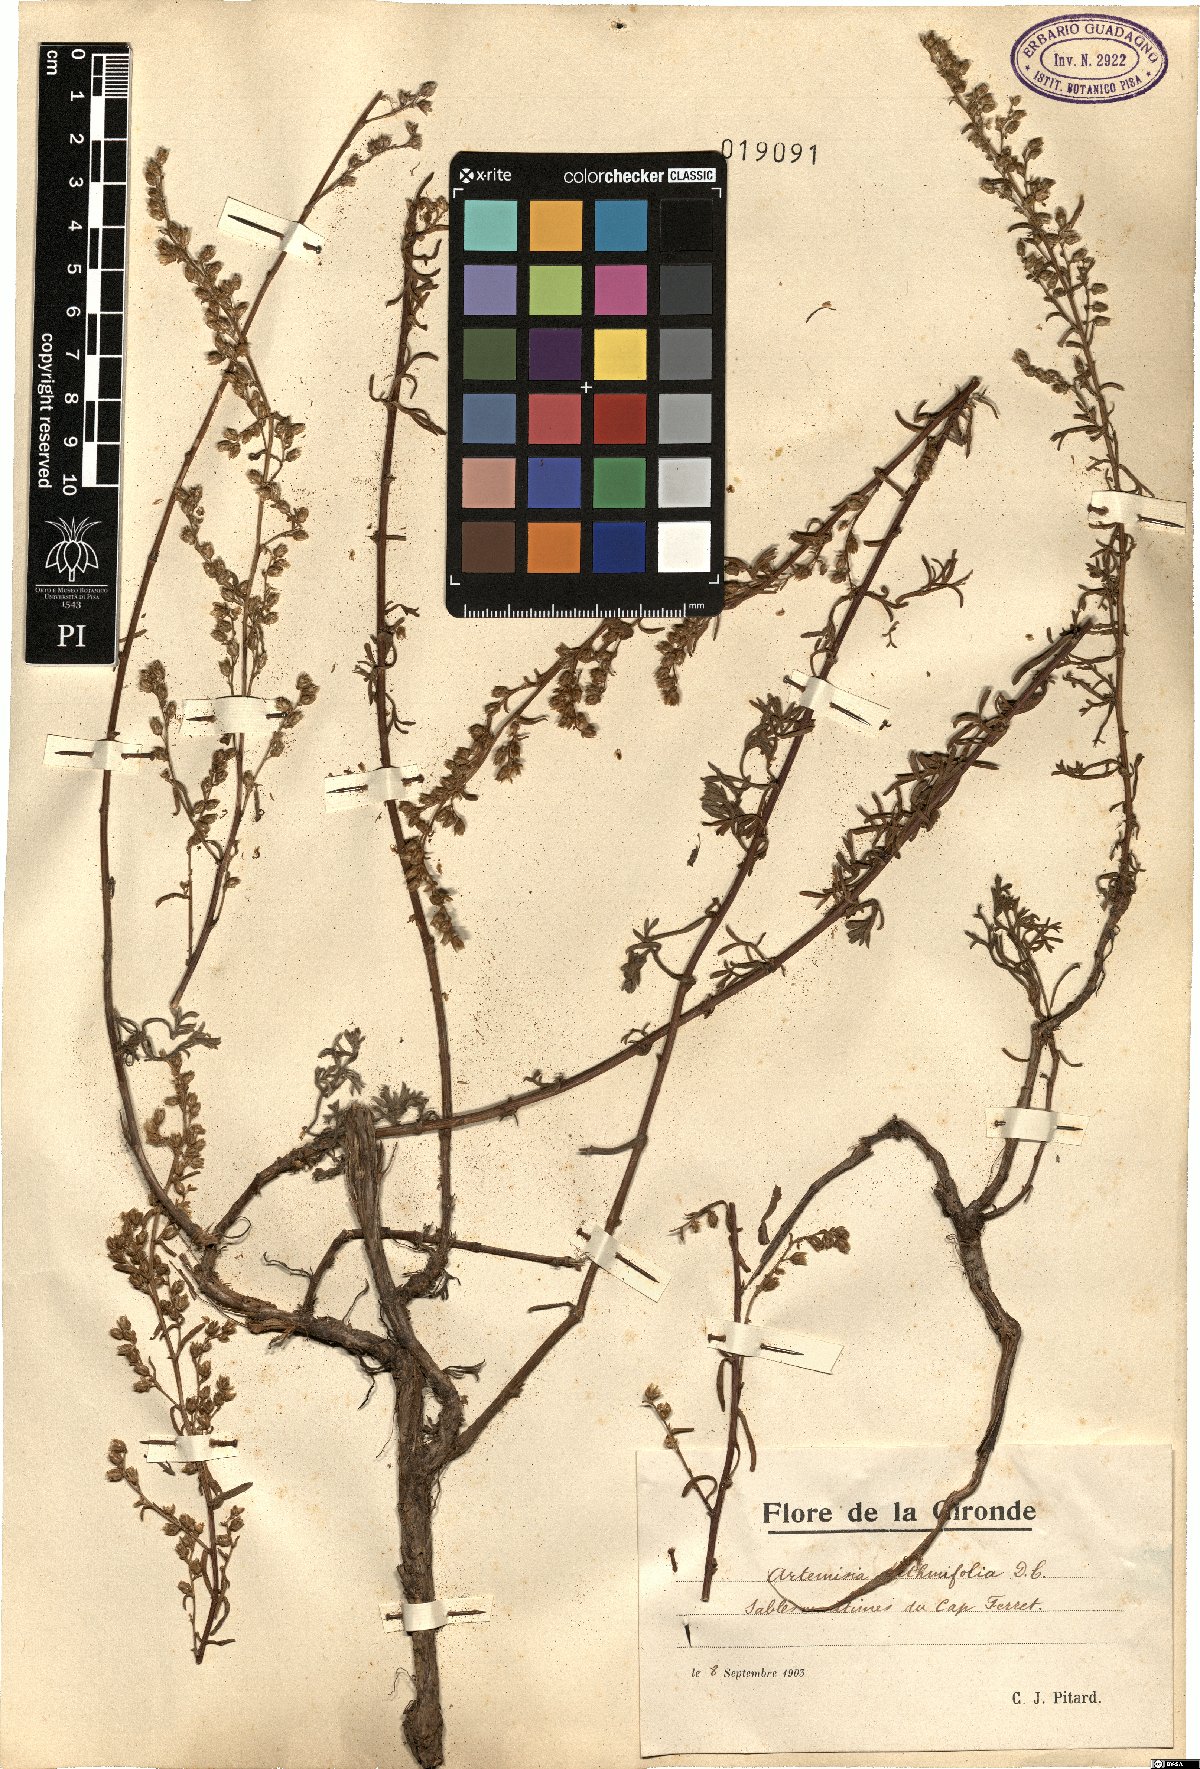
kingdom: Plantae
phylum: Tracheophyta
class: Magnoliopsida
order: Asterales
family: Asteraceae
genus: Artemisia
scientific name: Artemisia crithmifolia
